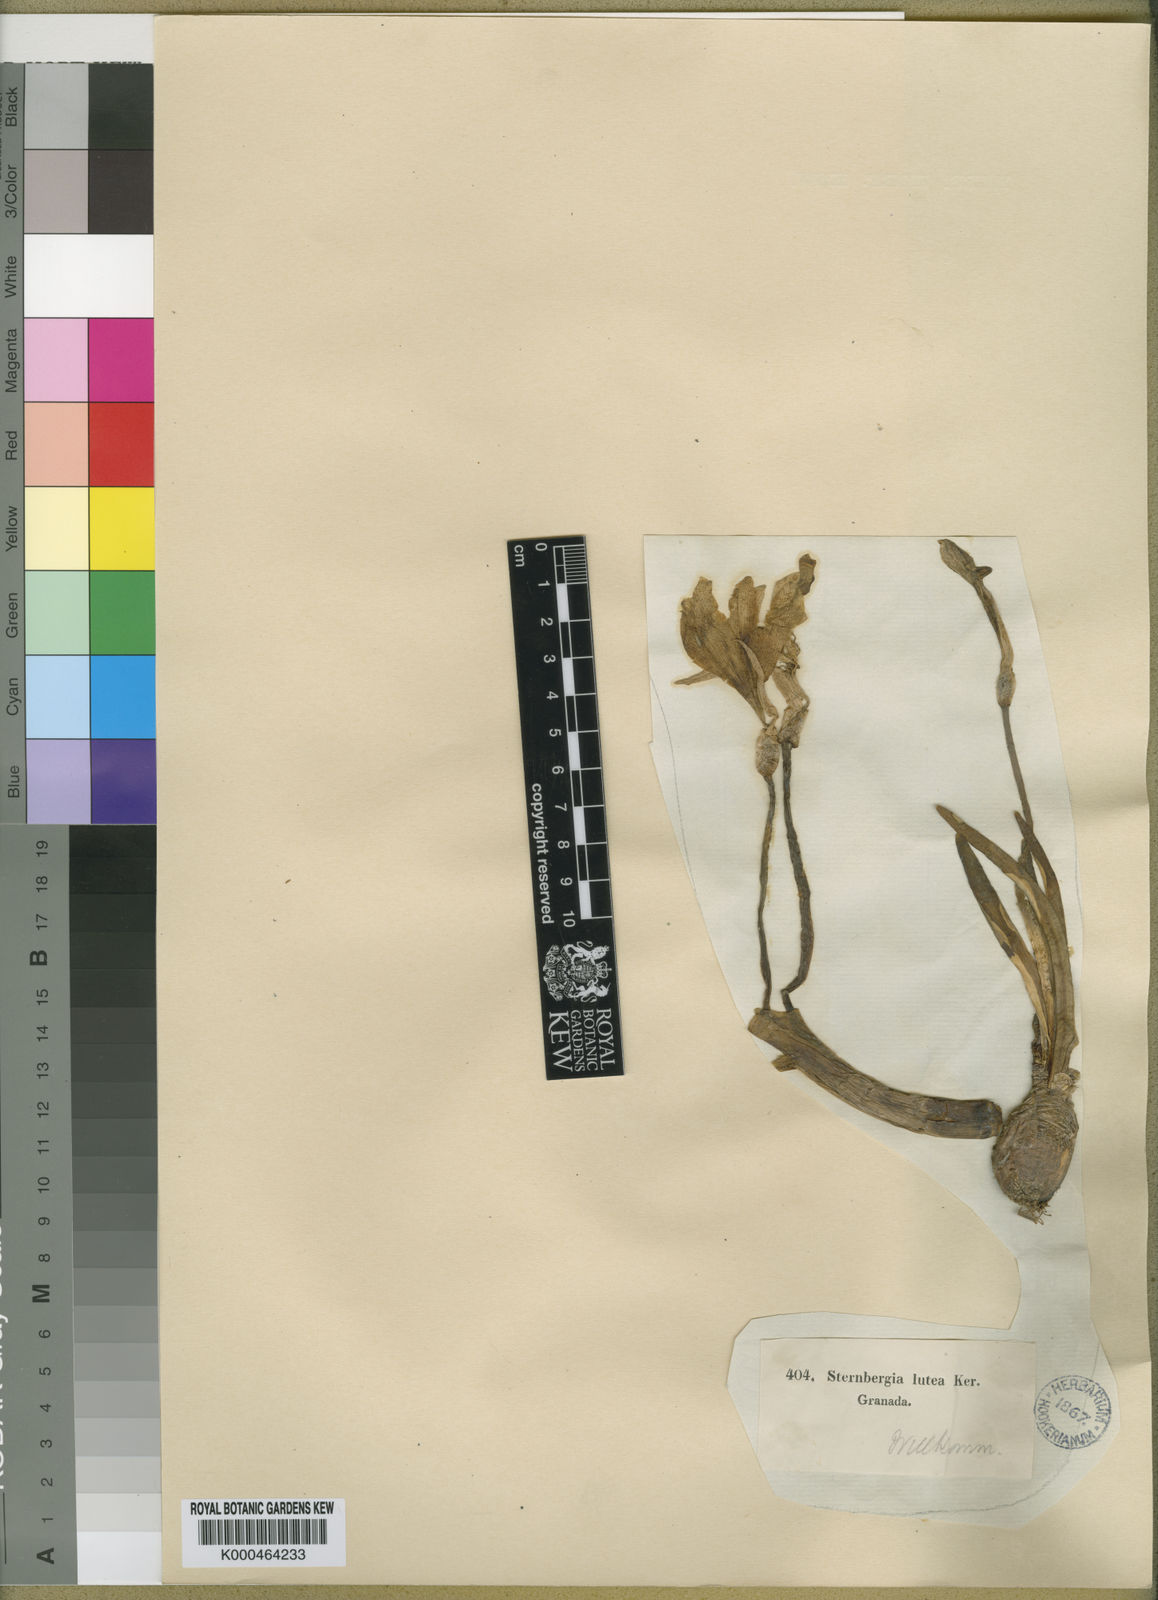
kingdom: Plantae
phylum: Tracheophyta
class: Liliopsida
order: Asparagales
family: Amaryllidaceae
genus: Sternbergia
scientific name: Sternbergia
